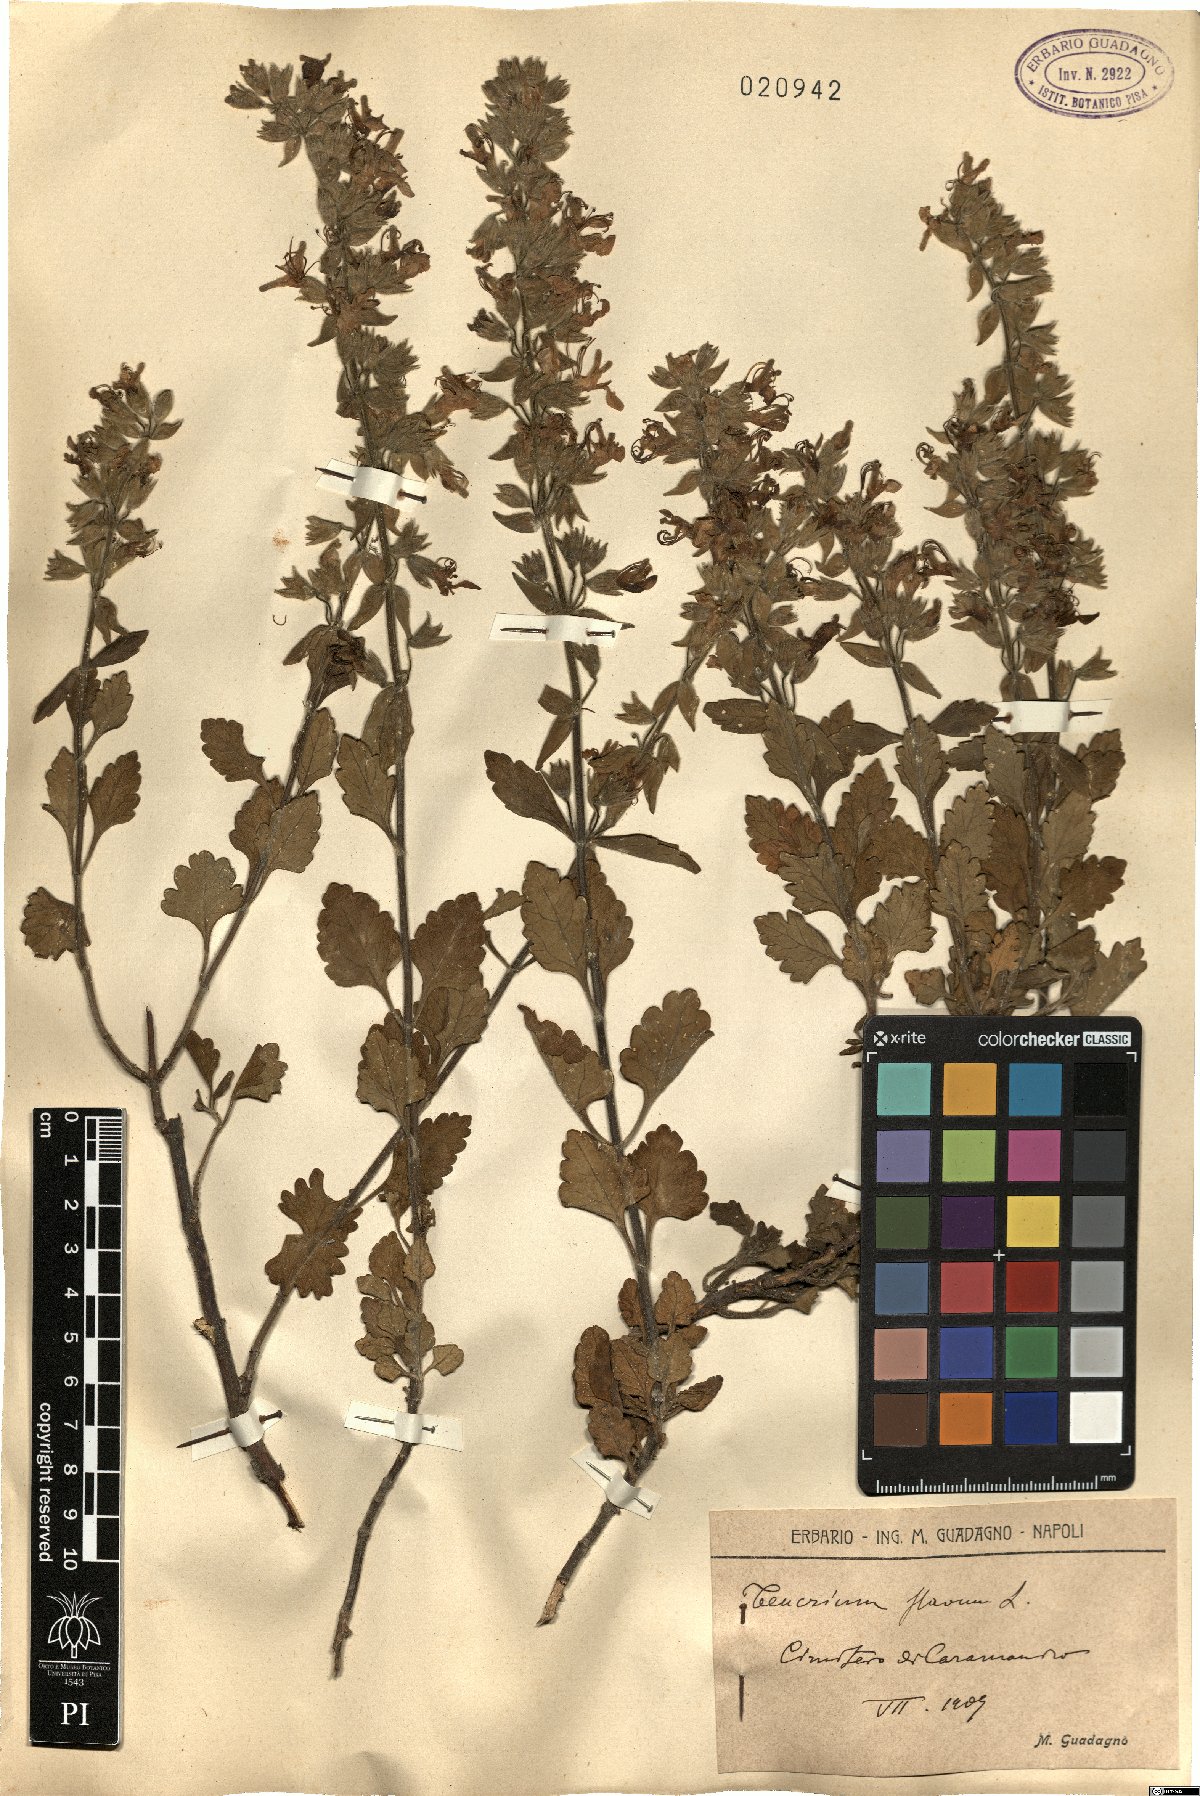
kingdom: Plantae
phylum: Tracheophyta
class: Magnoliopsida
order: Lamiales
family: Lamiaceae
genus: Teucrium
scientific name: Teucrium flavum
